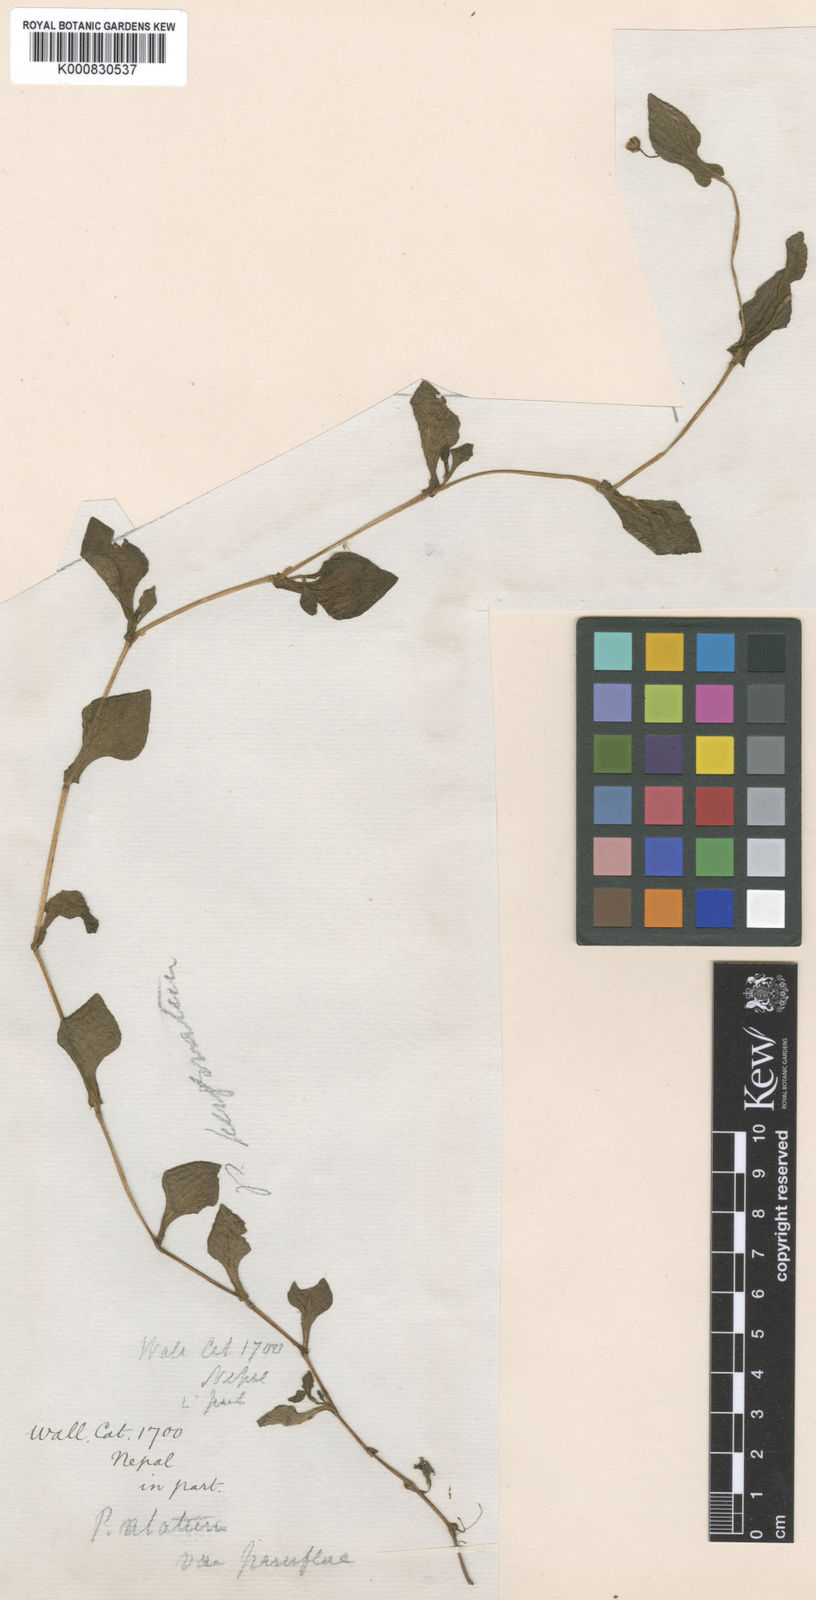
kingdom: Plantae
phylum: Tracheophyta
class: Magnoliopsida
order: Caryophyllales
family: Polygonaceae
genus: Polygonum
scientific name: Polygonum
